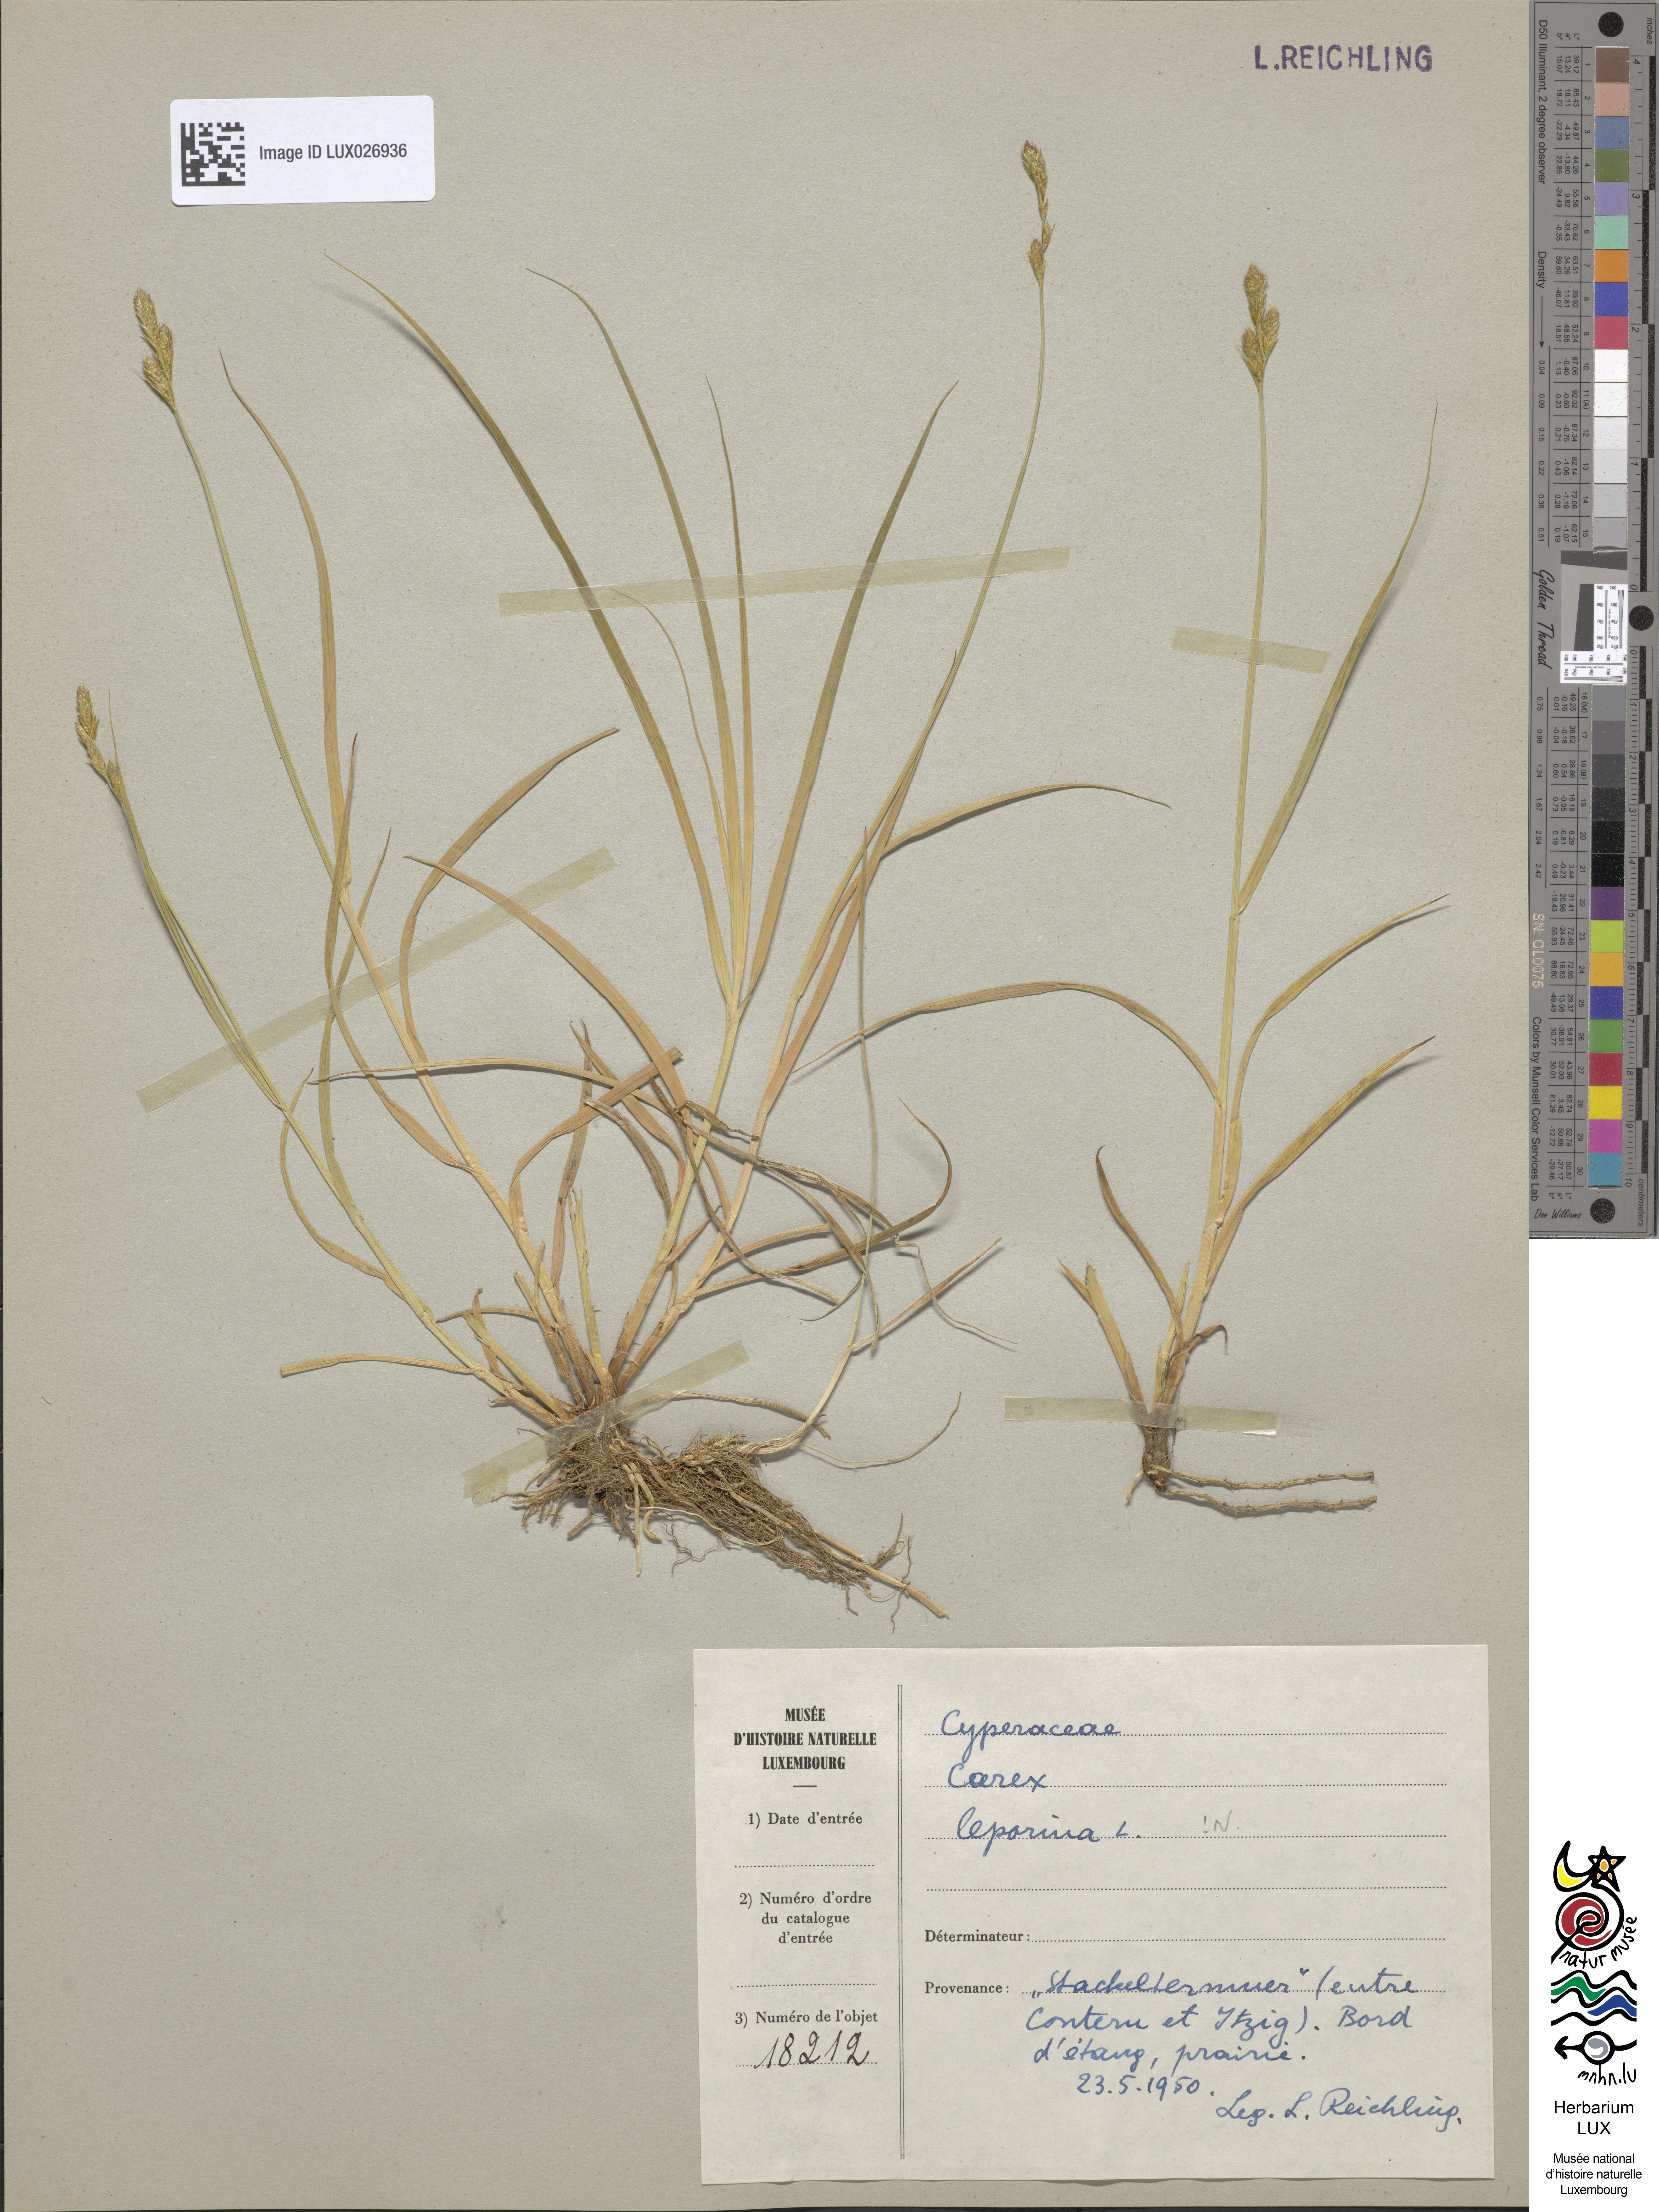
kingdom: Plantae
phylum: Tracheophyta
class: Liliopsida
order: Poales
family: Cyperaceae
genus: Carex
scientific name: Carex leporina
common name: Oval sedge
